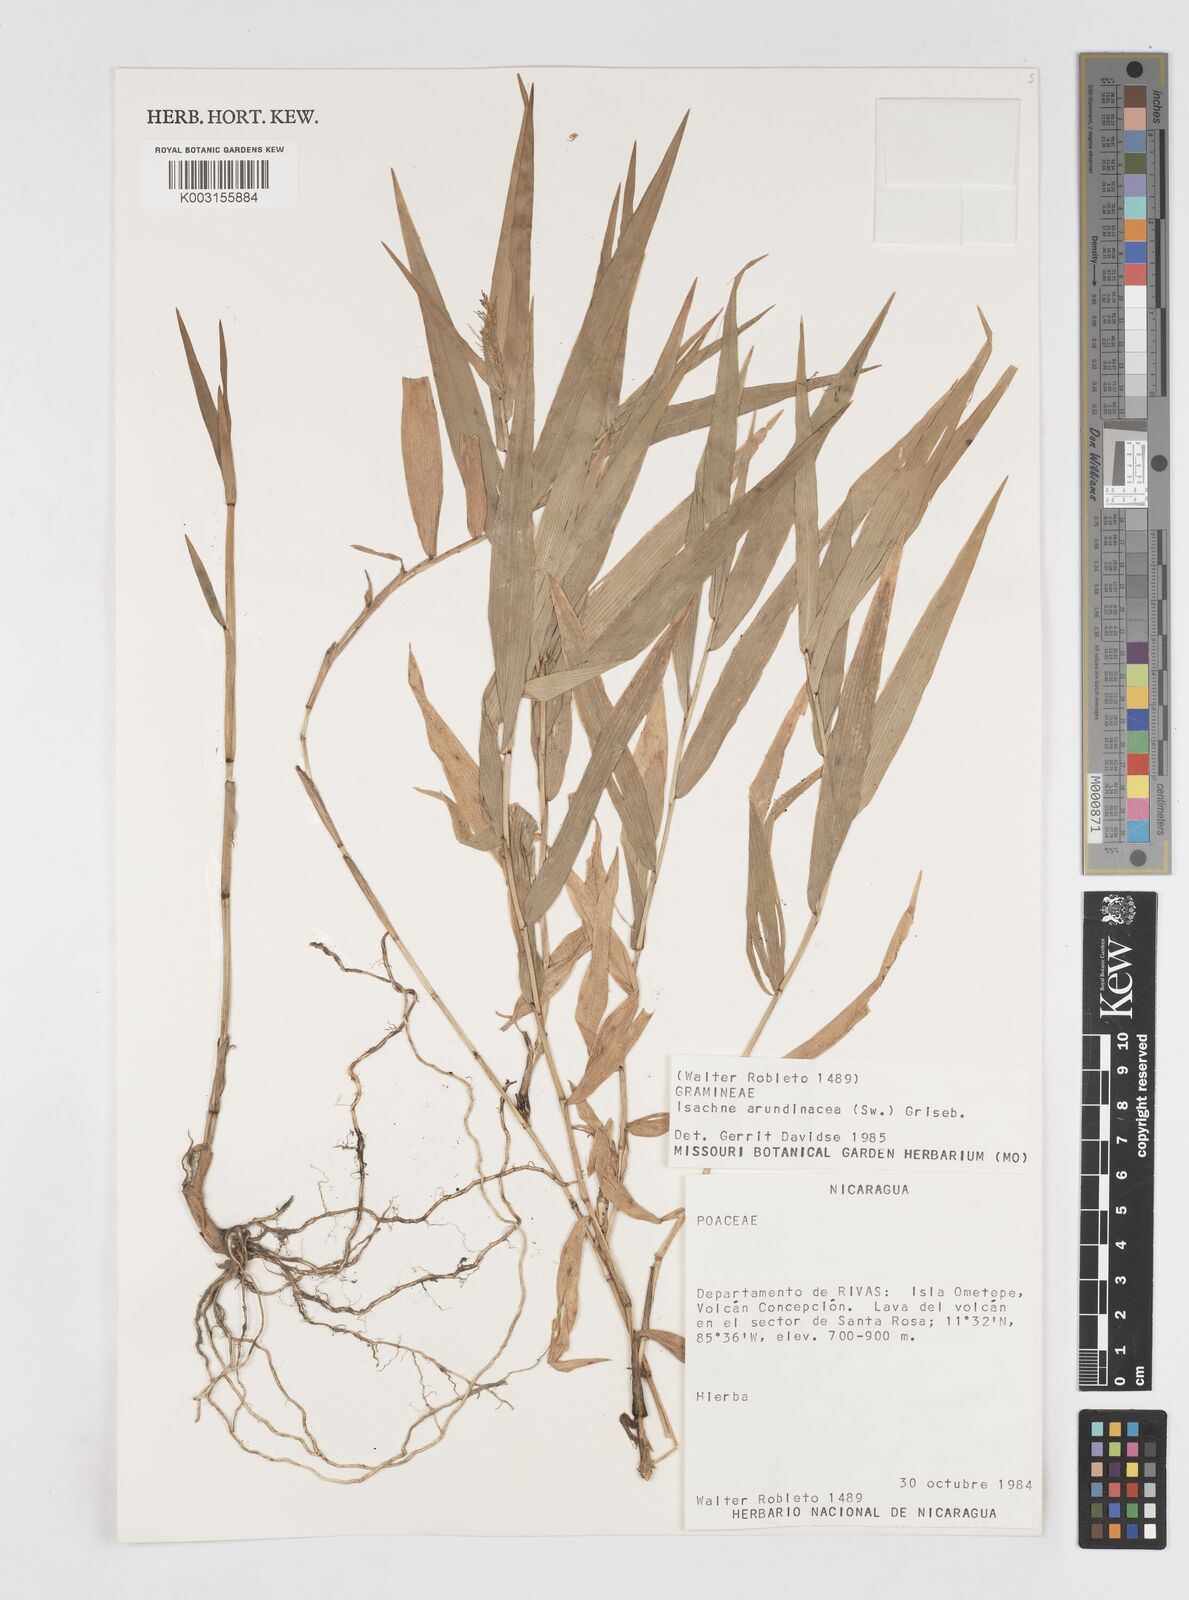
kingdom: Plantae
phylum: Tracheophyta
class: Liliopsida
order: Poales
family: Poaceae
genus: Isachne
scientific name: Isachne arundinacea
